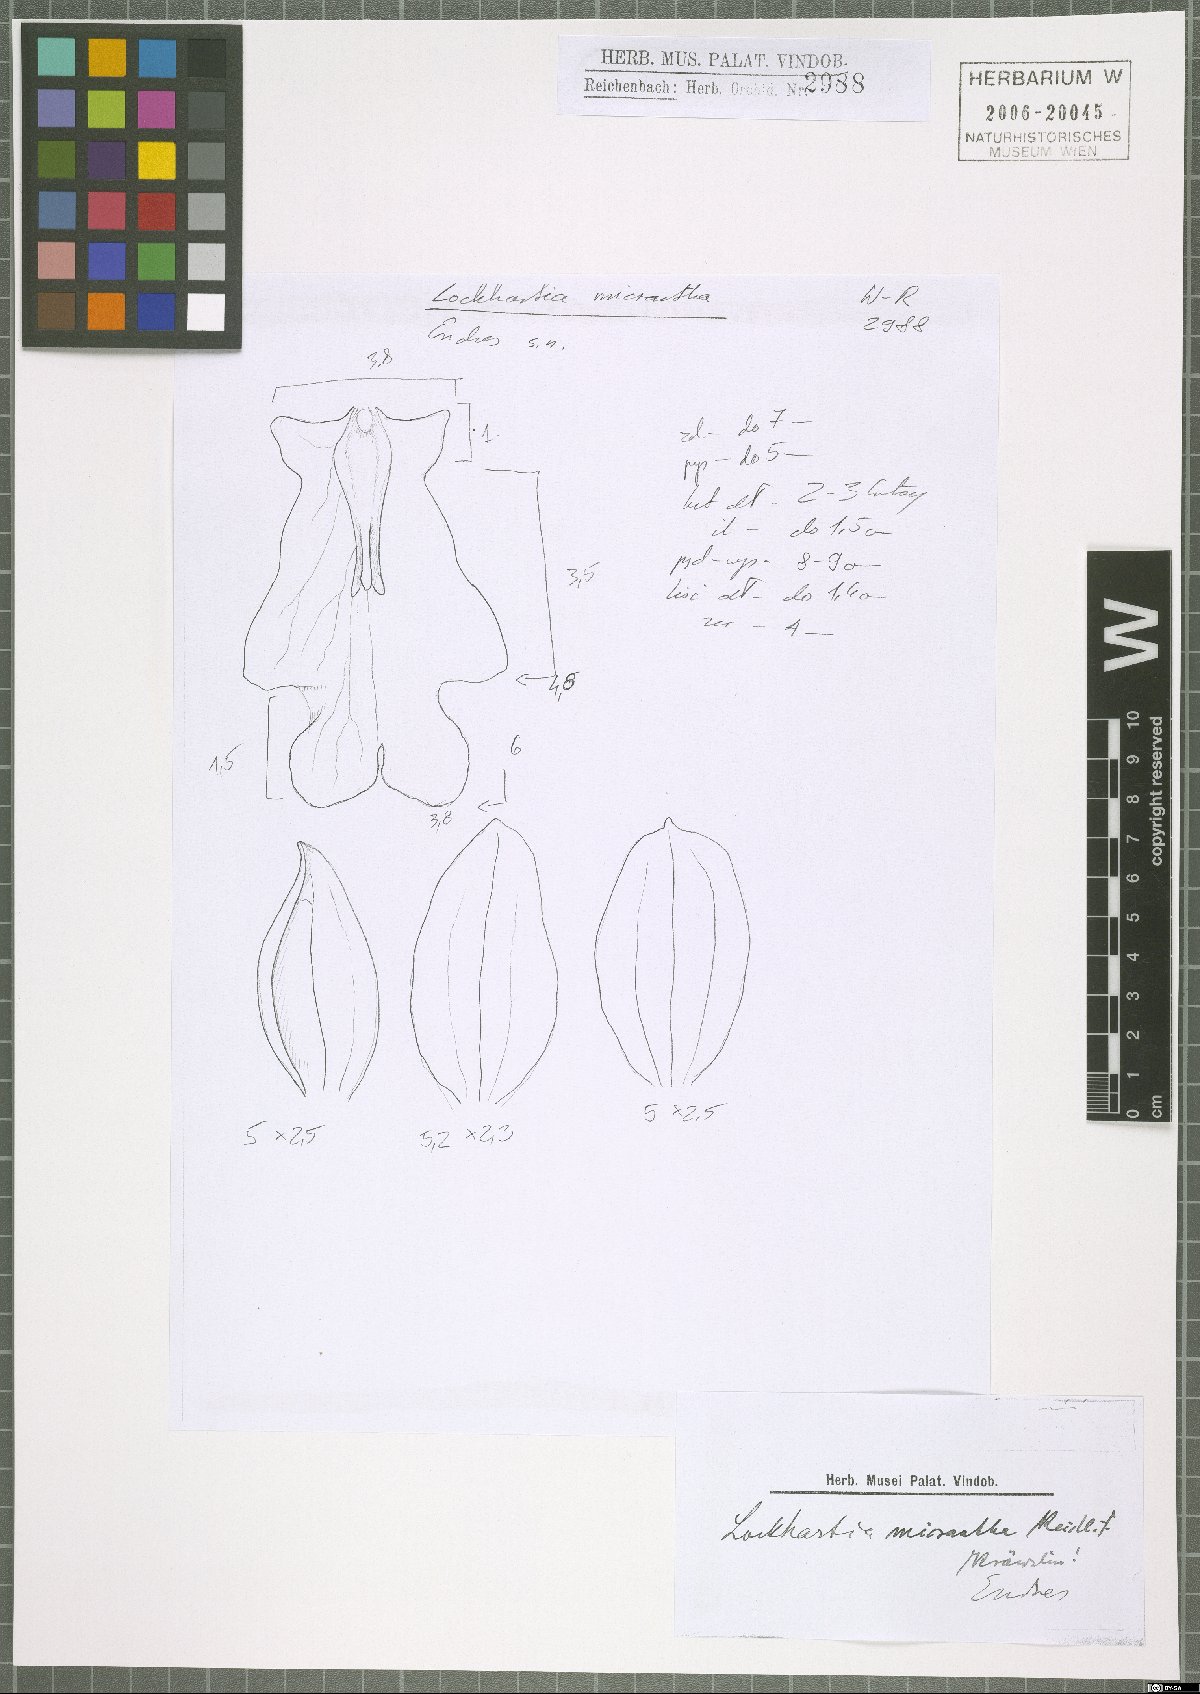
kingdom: Plantae
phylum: Tracheophyta
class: Liliopsida
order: Asparagales
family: Orchidaceae
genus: Lockhartia
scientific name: Lockhartia micrantha
